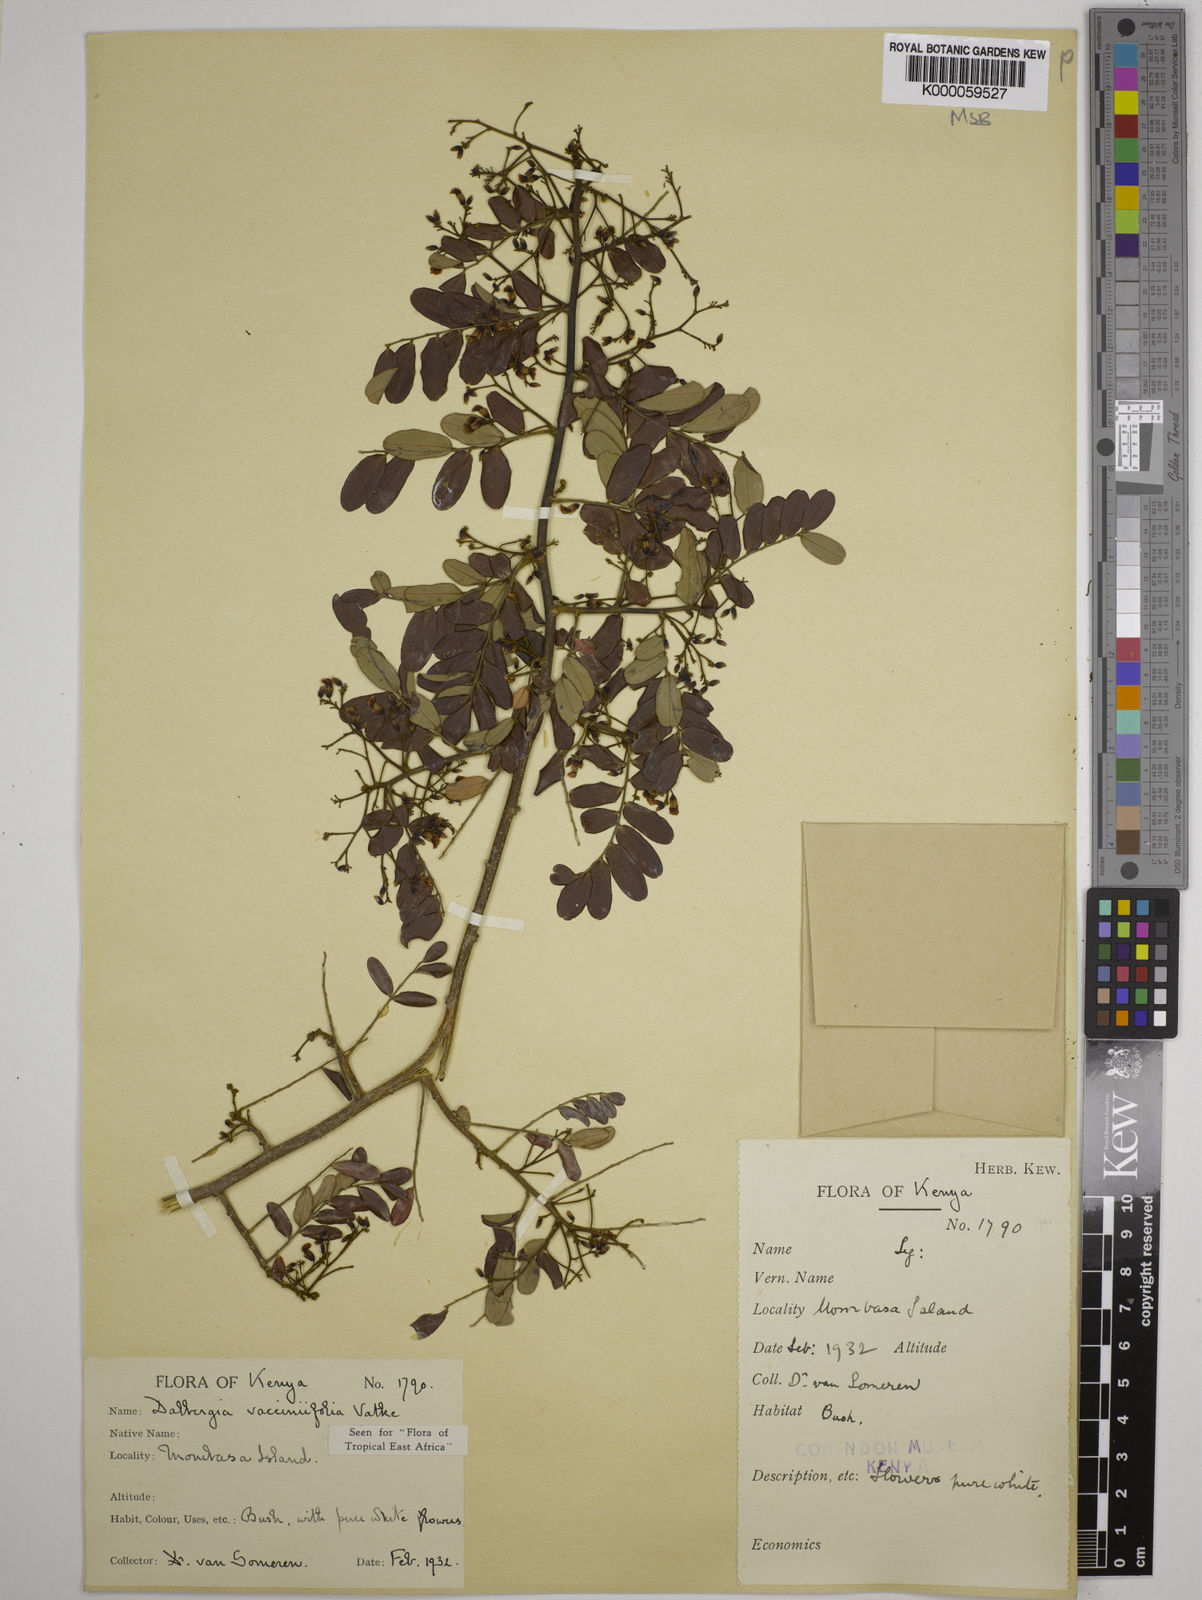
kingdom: Plantae
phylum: Tracheophyta
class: Magnoliopsida
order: Fabales
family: Fabaceae
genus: Dalbergia
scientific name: Dalbergia vacciniifolia
